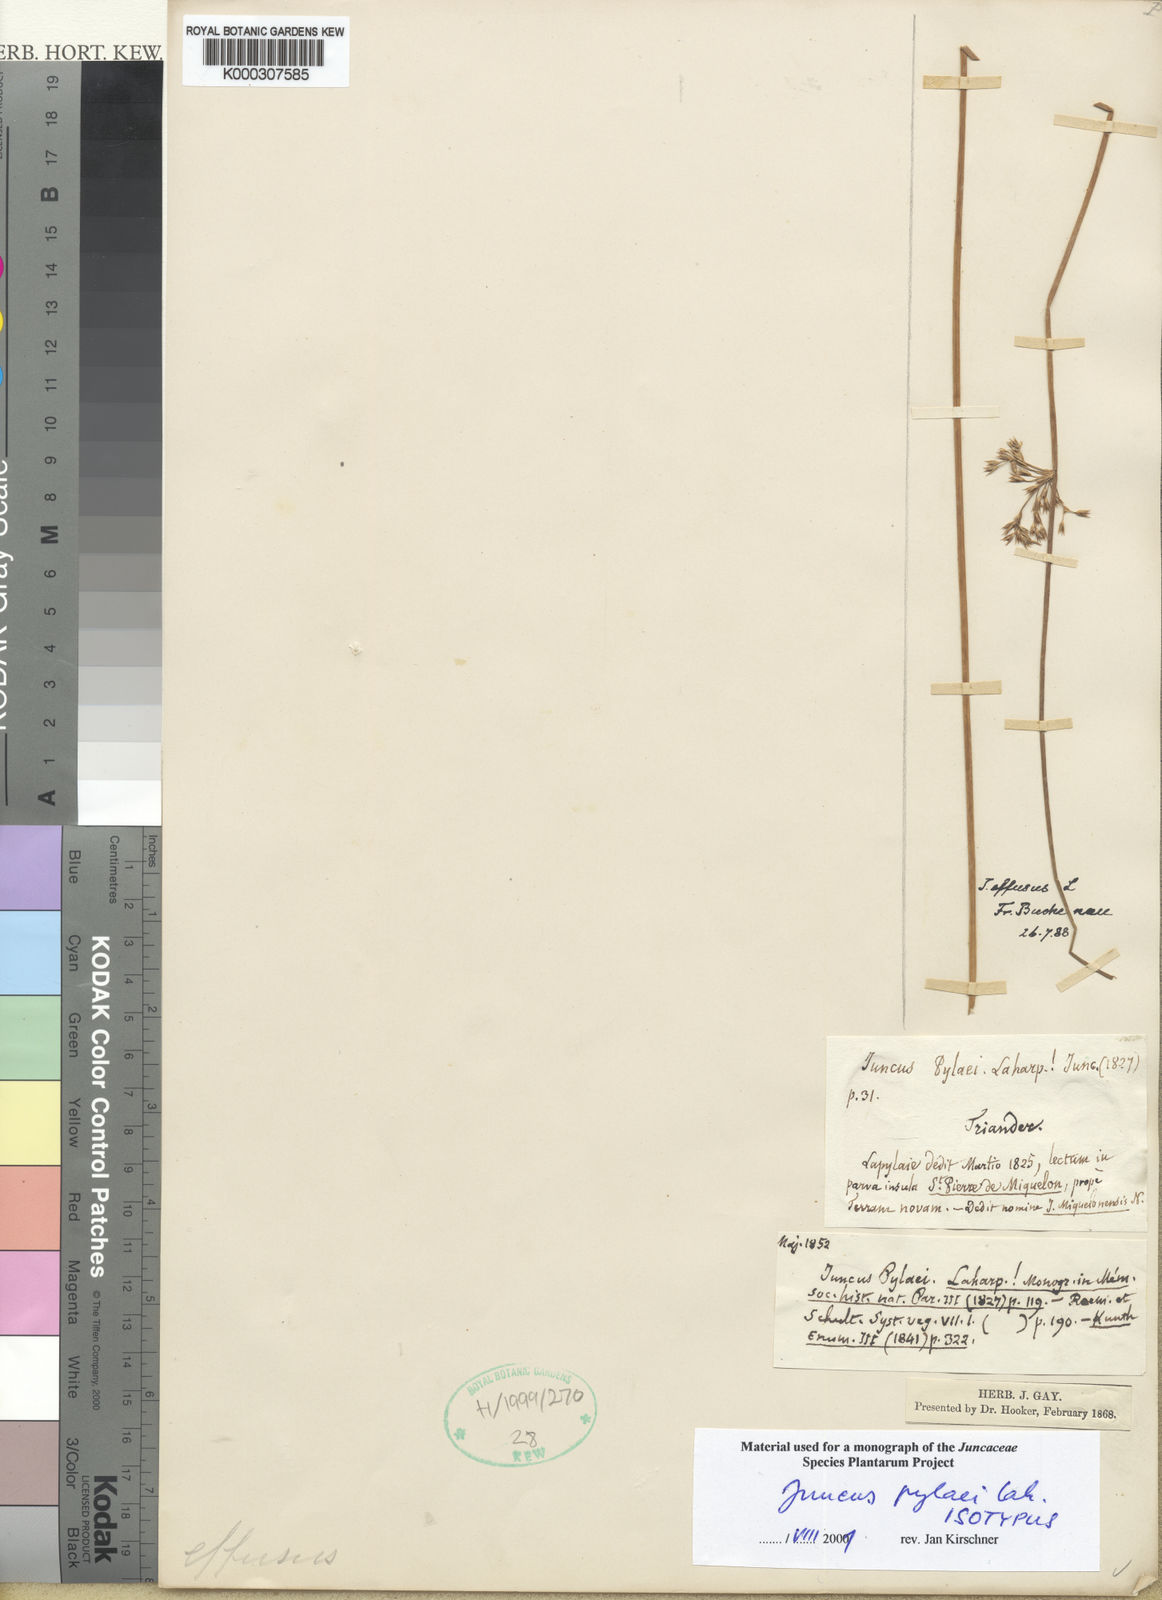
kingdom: Plantae
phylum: Tracheophyta
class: Liliopsida
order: Poales
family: Juncaceae
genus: Juncus
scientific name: Juncus pylaei
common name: Common rush
